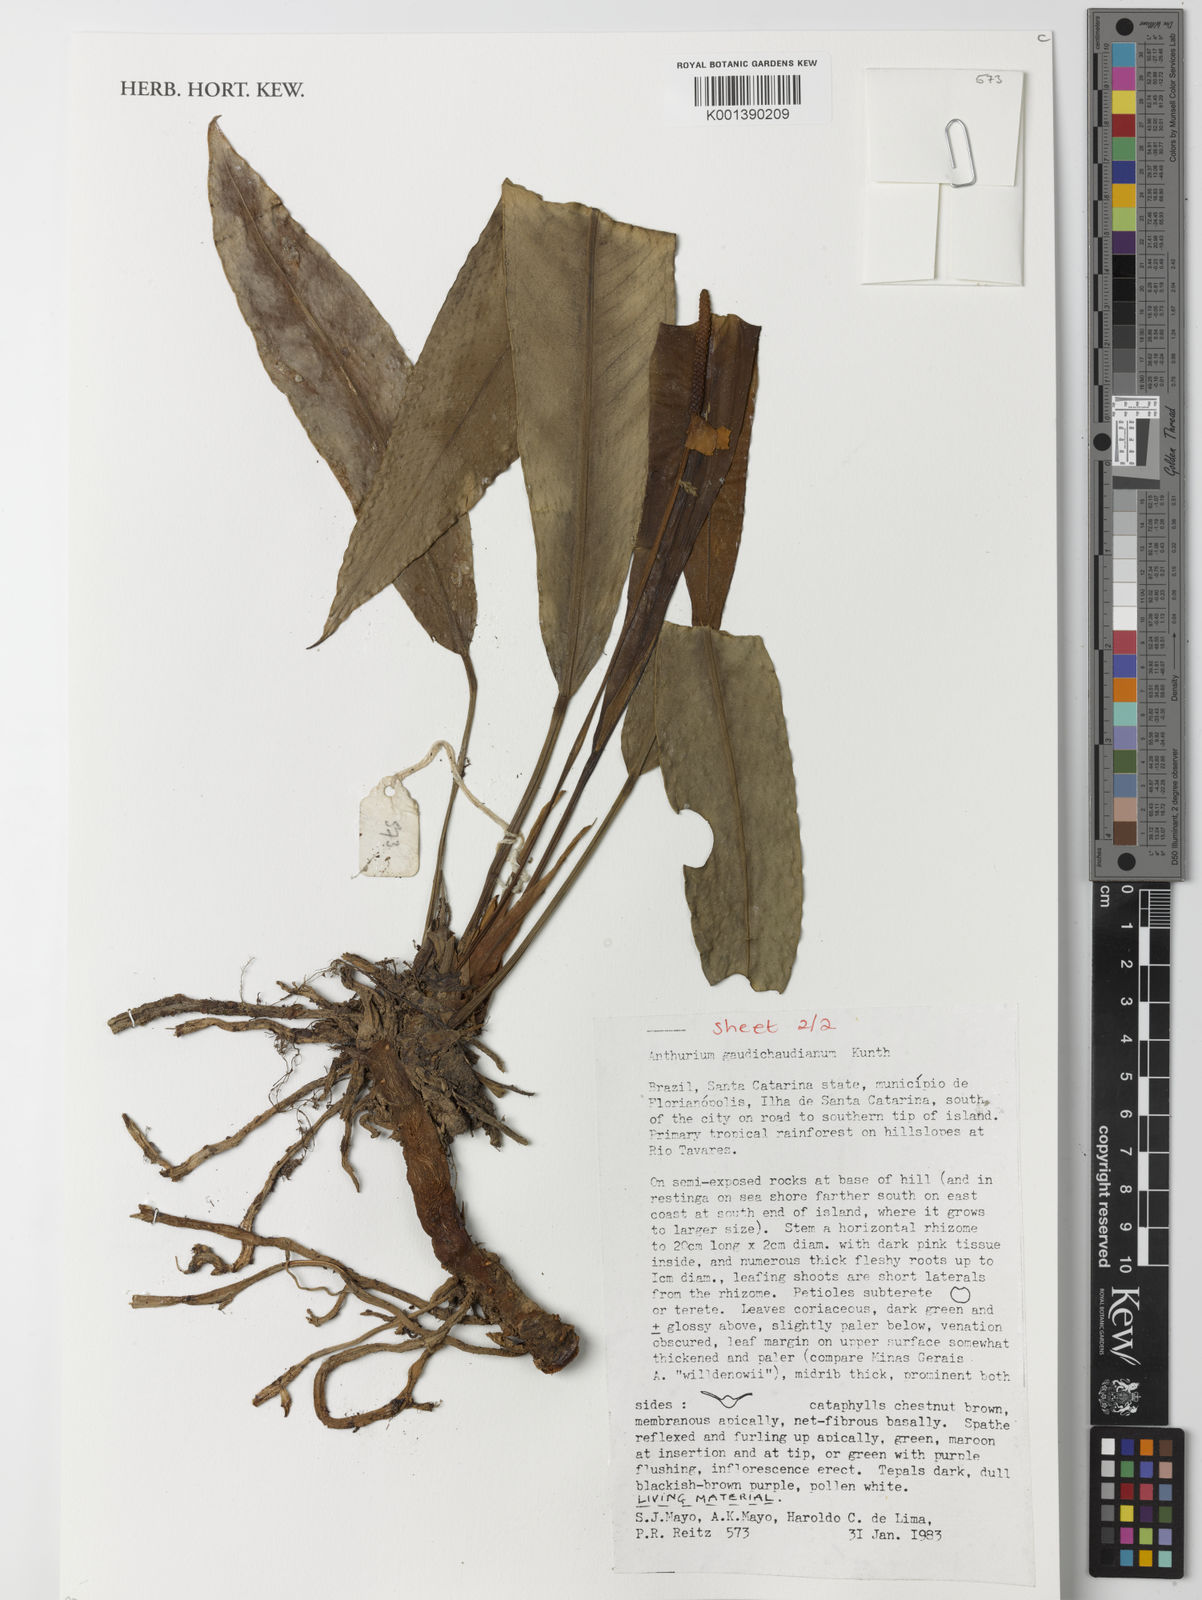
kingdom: Plantae
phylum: Tracheophyta
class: Liliopsida
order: Alismatales
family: Araceae
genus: Anthurium
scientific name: Anthurium gaudichaudianum
